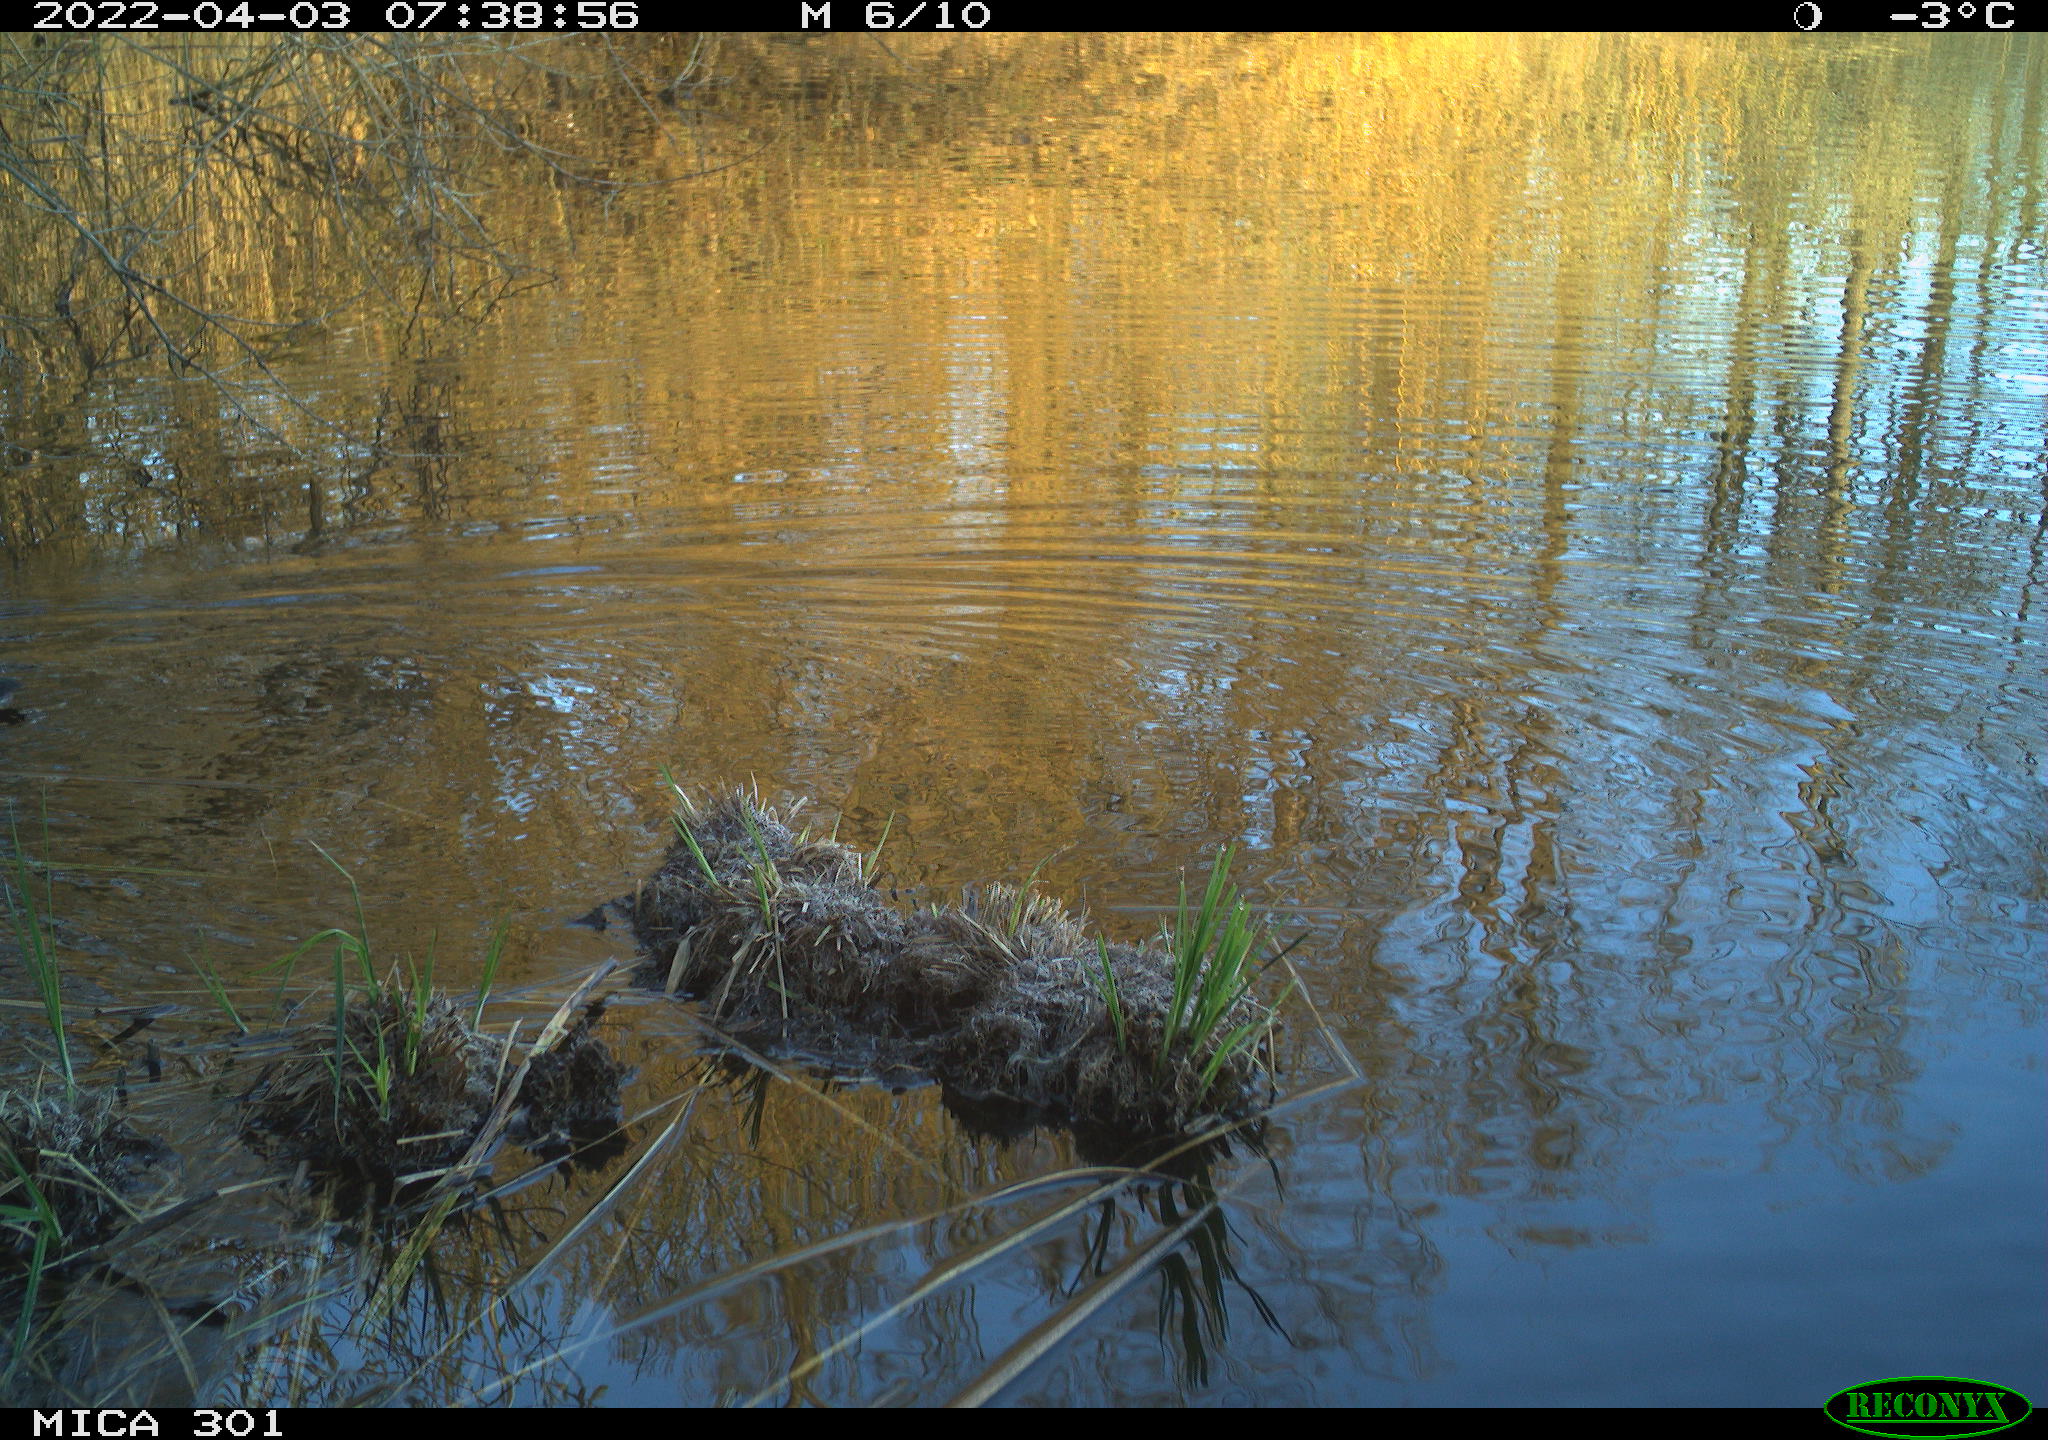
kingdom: Animalia
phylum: Chordata
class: Aves
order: Gruiformes
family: Rallidae
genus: Fulica
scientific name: Fulica atra
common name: Eurasian coot
